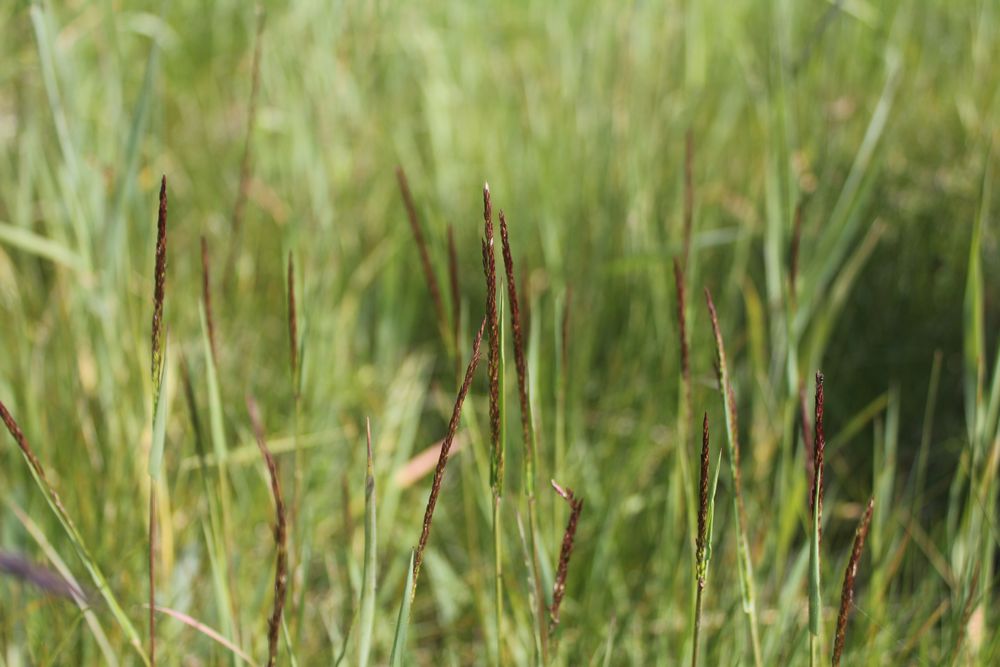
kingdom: Plantae
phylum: Tracheophyta
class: Liliopsida
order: Poales
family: Poaceae
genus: Agrostis
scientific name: Agrostis
